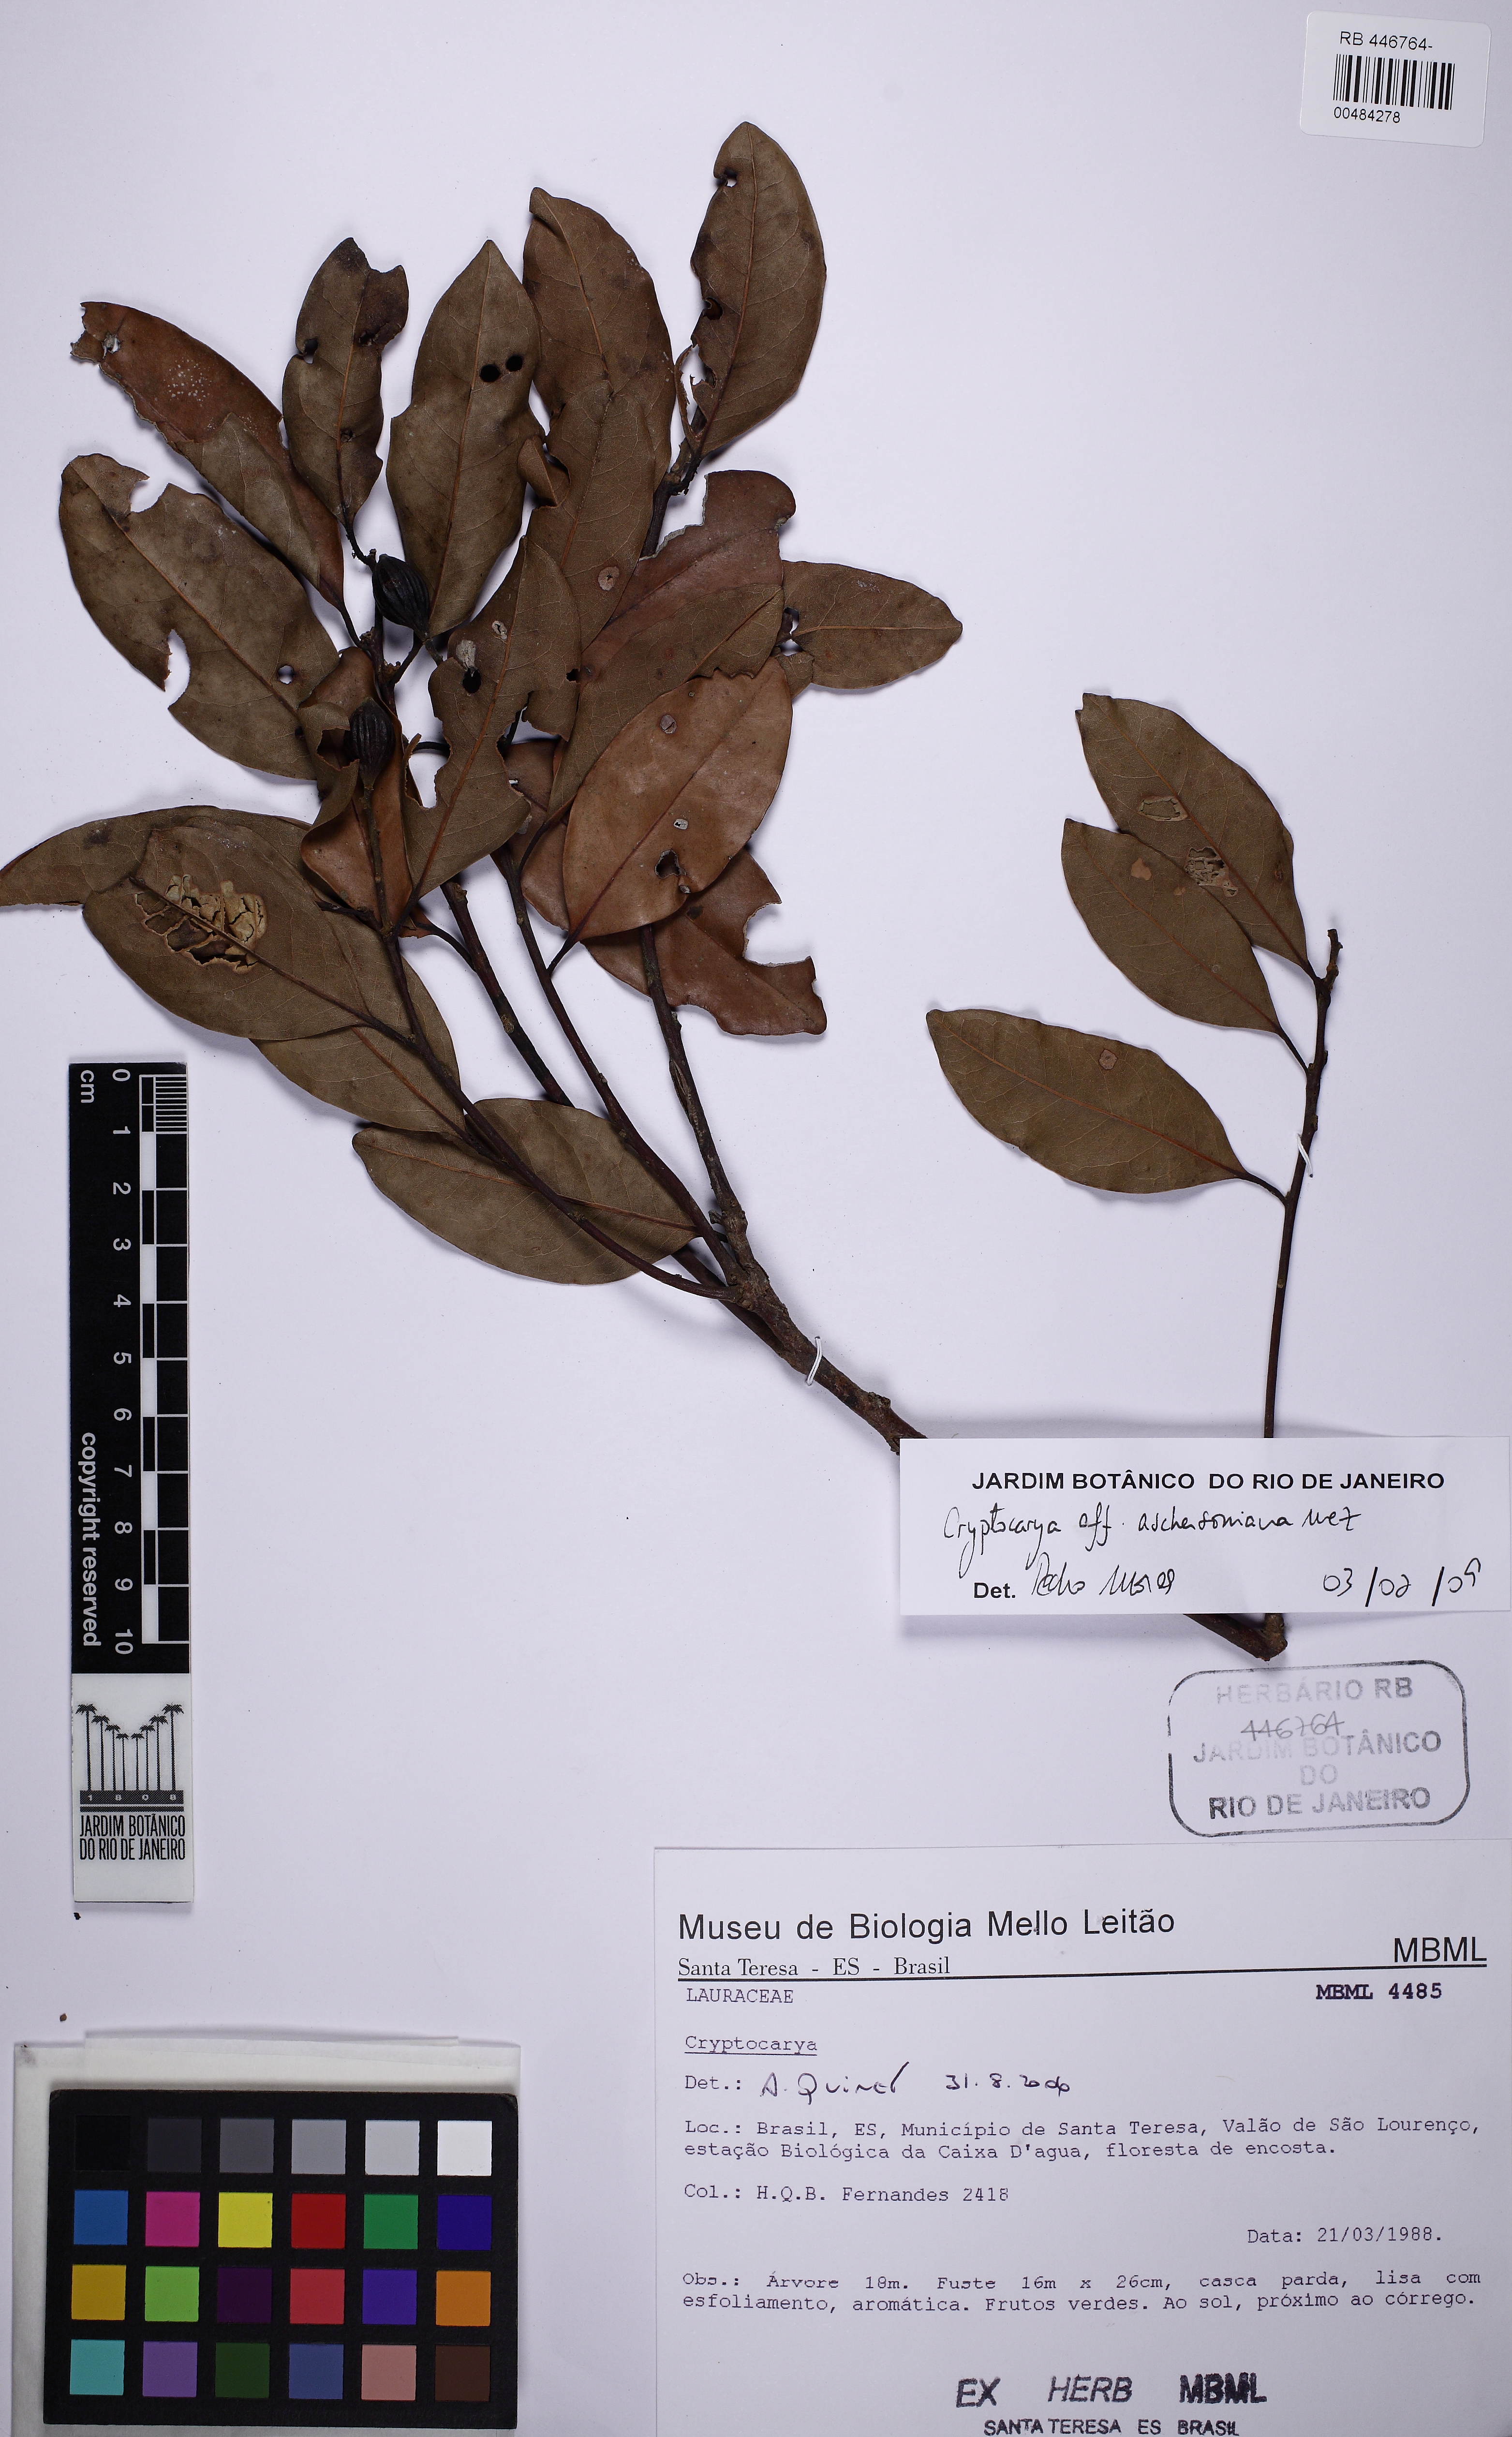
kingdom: Plantae
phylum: Tracheophyta
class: Magnoliopsida
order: Laurales
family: Lauraceae
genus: Cryptocarya
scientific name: Cryptocarya aschersoniana
